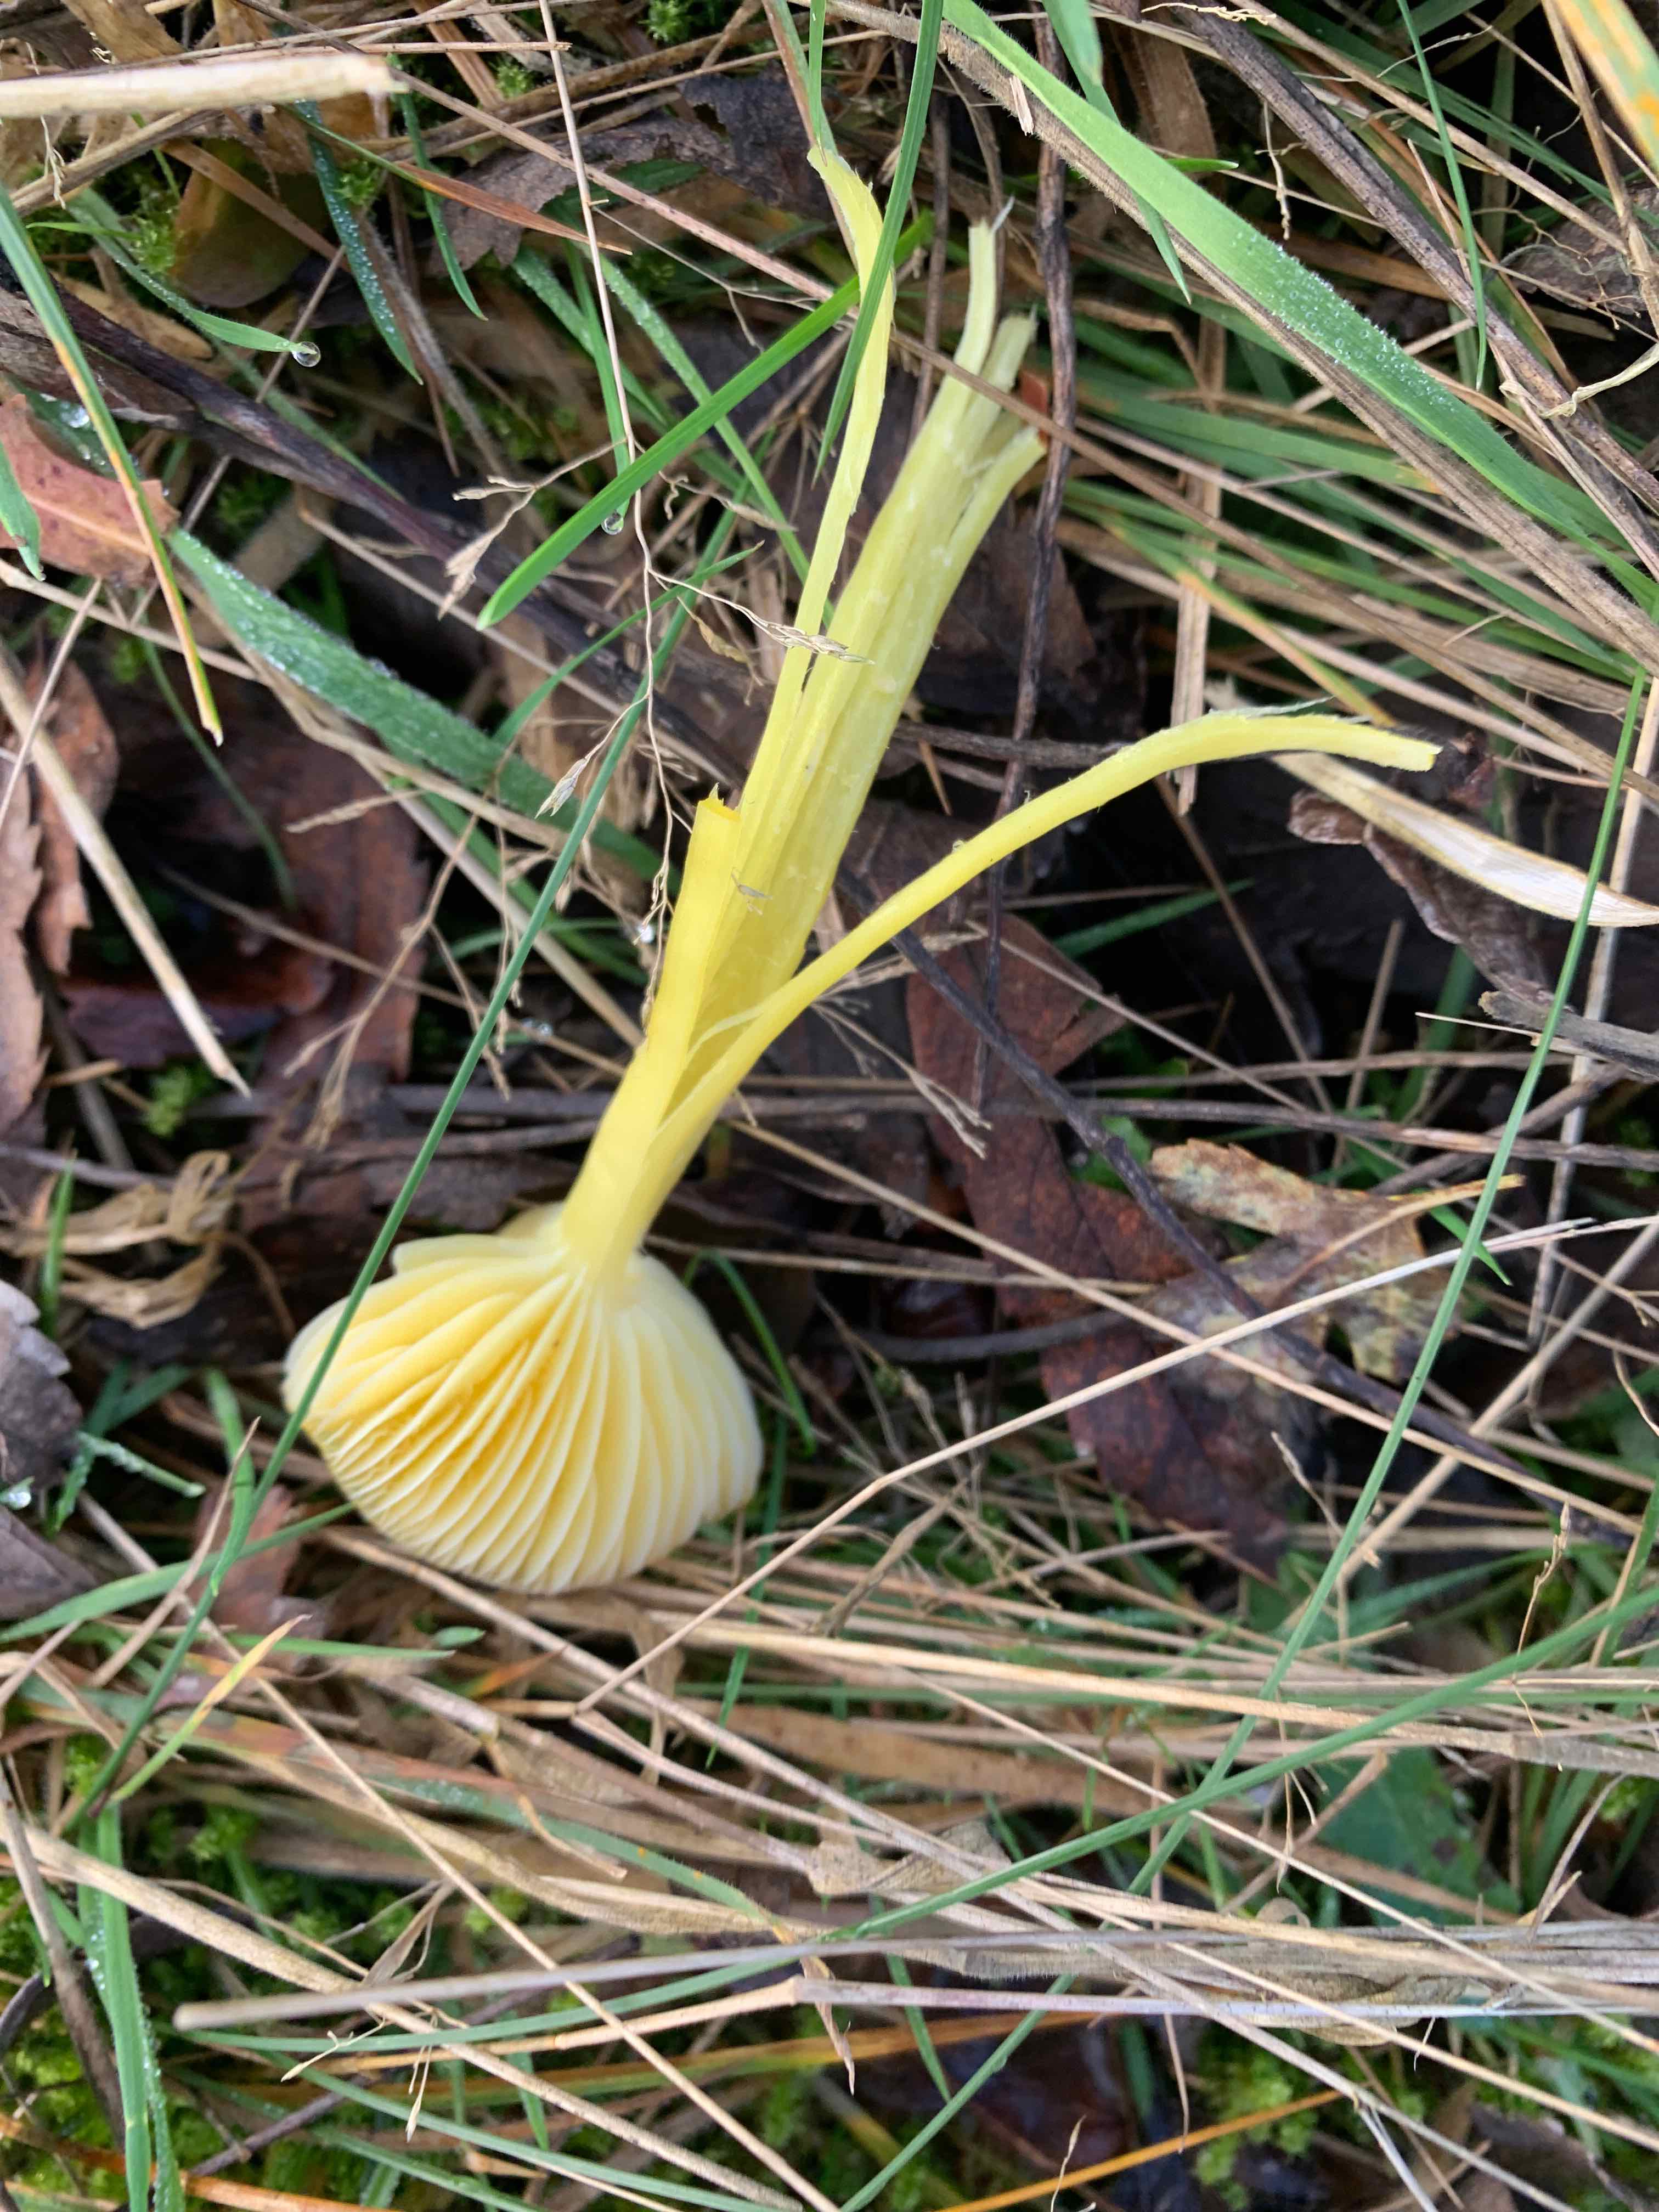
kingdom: Fungi
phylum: Basidiomycota
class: Agaricomycetes
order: Agaricales
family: Hygrophoraceae
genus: Hygrocybe
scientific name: Hygrocybe ceracea
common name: voksgul vokshat
